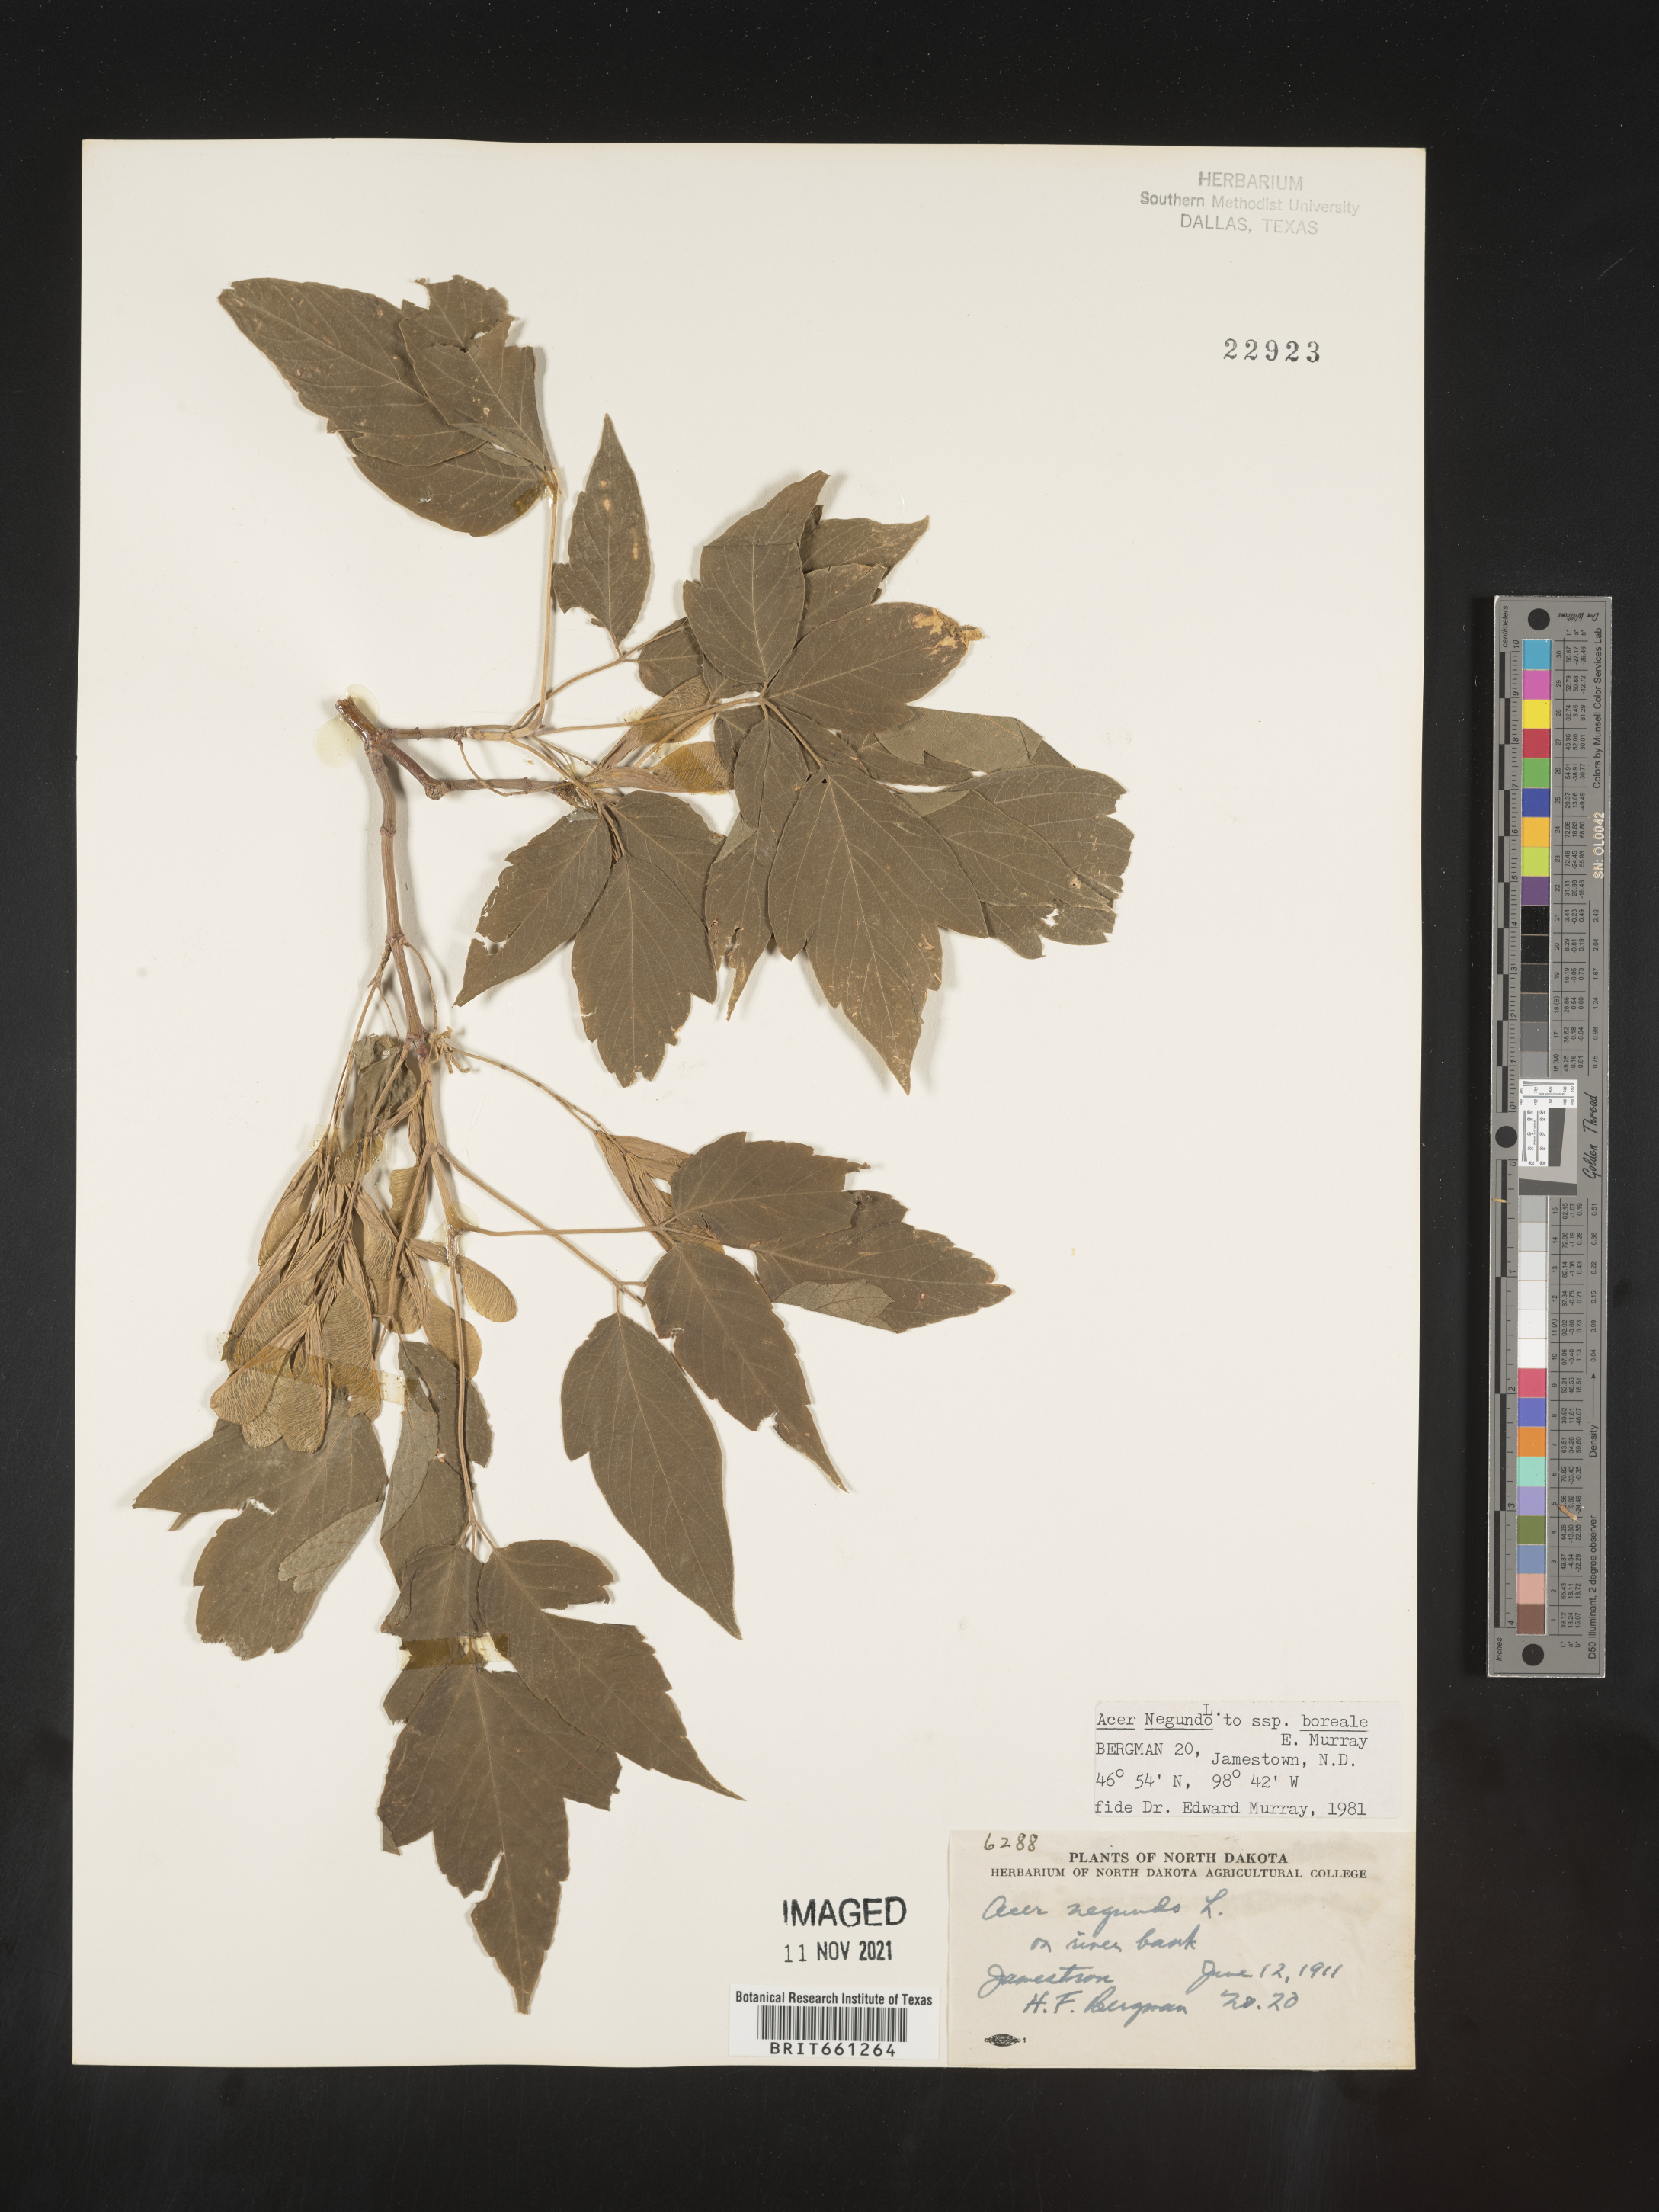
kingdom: Plantae
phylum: Tracheophyta
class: Magnoliopsida
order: Sapindales
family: Sapindaceae
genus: Acer
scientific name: Acer negundo
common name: Ashleaf maple
